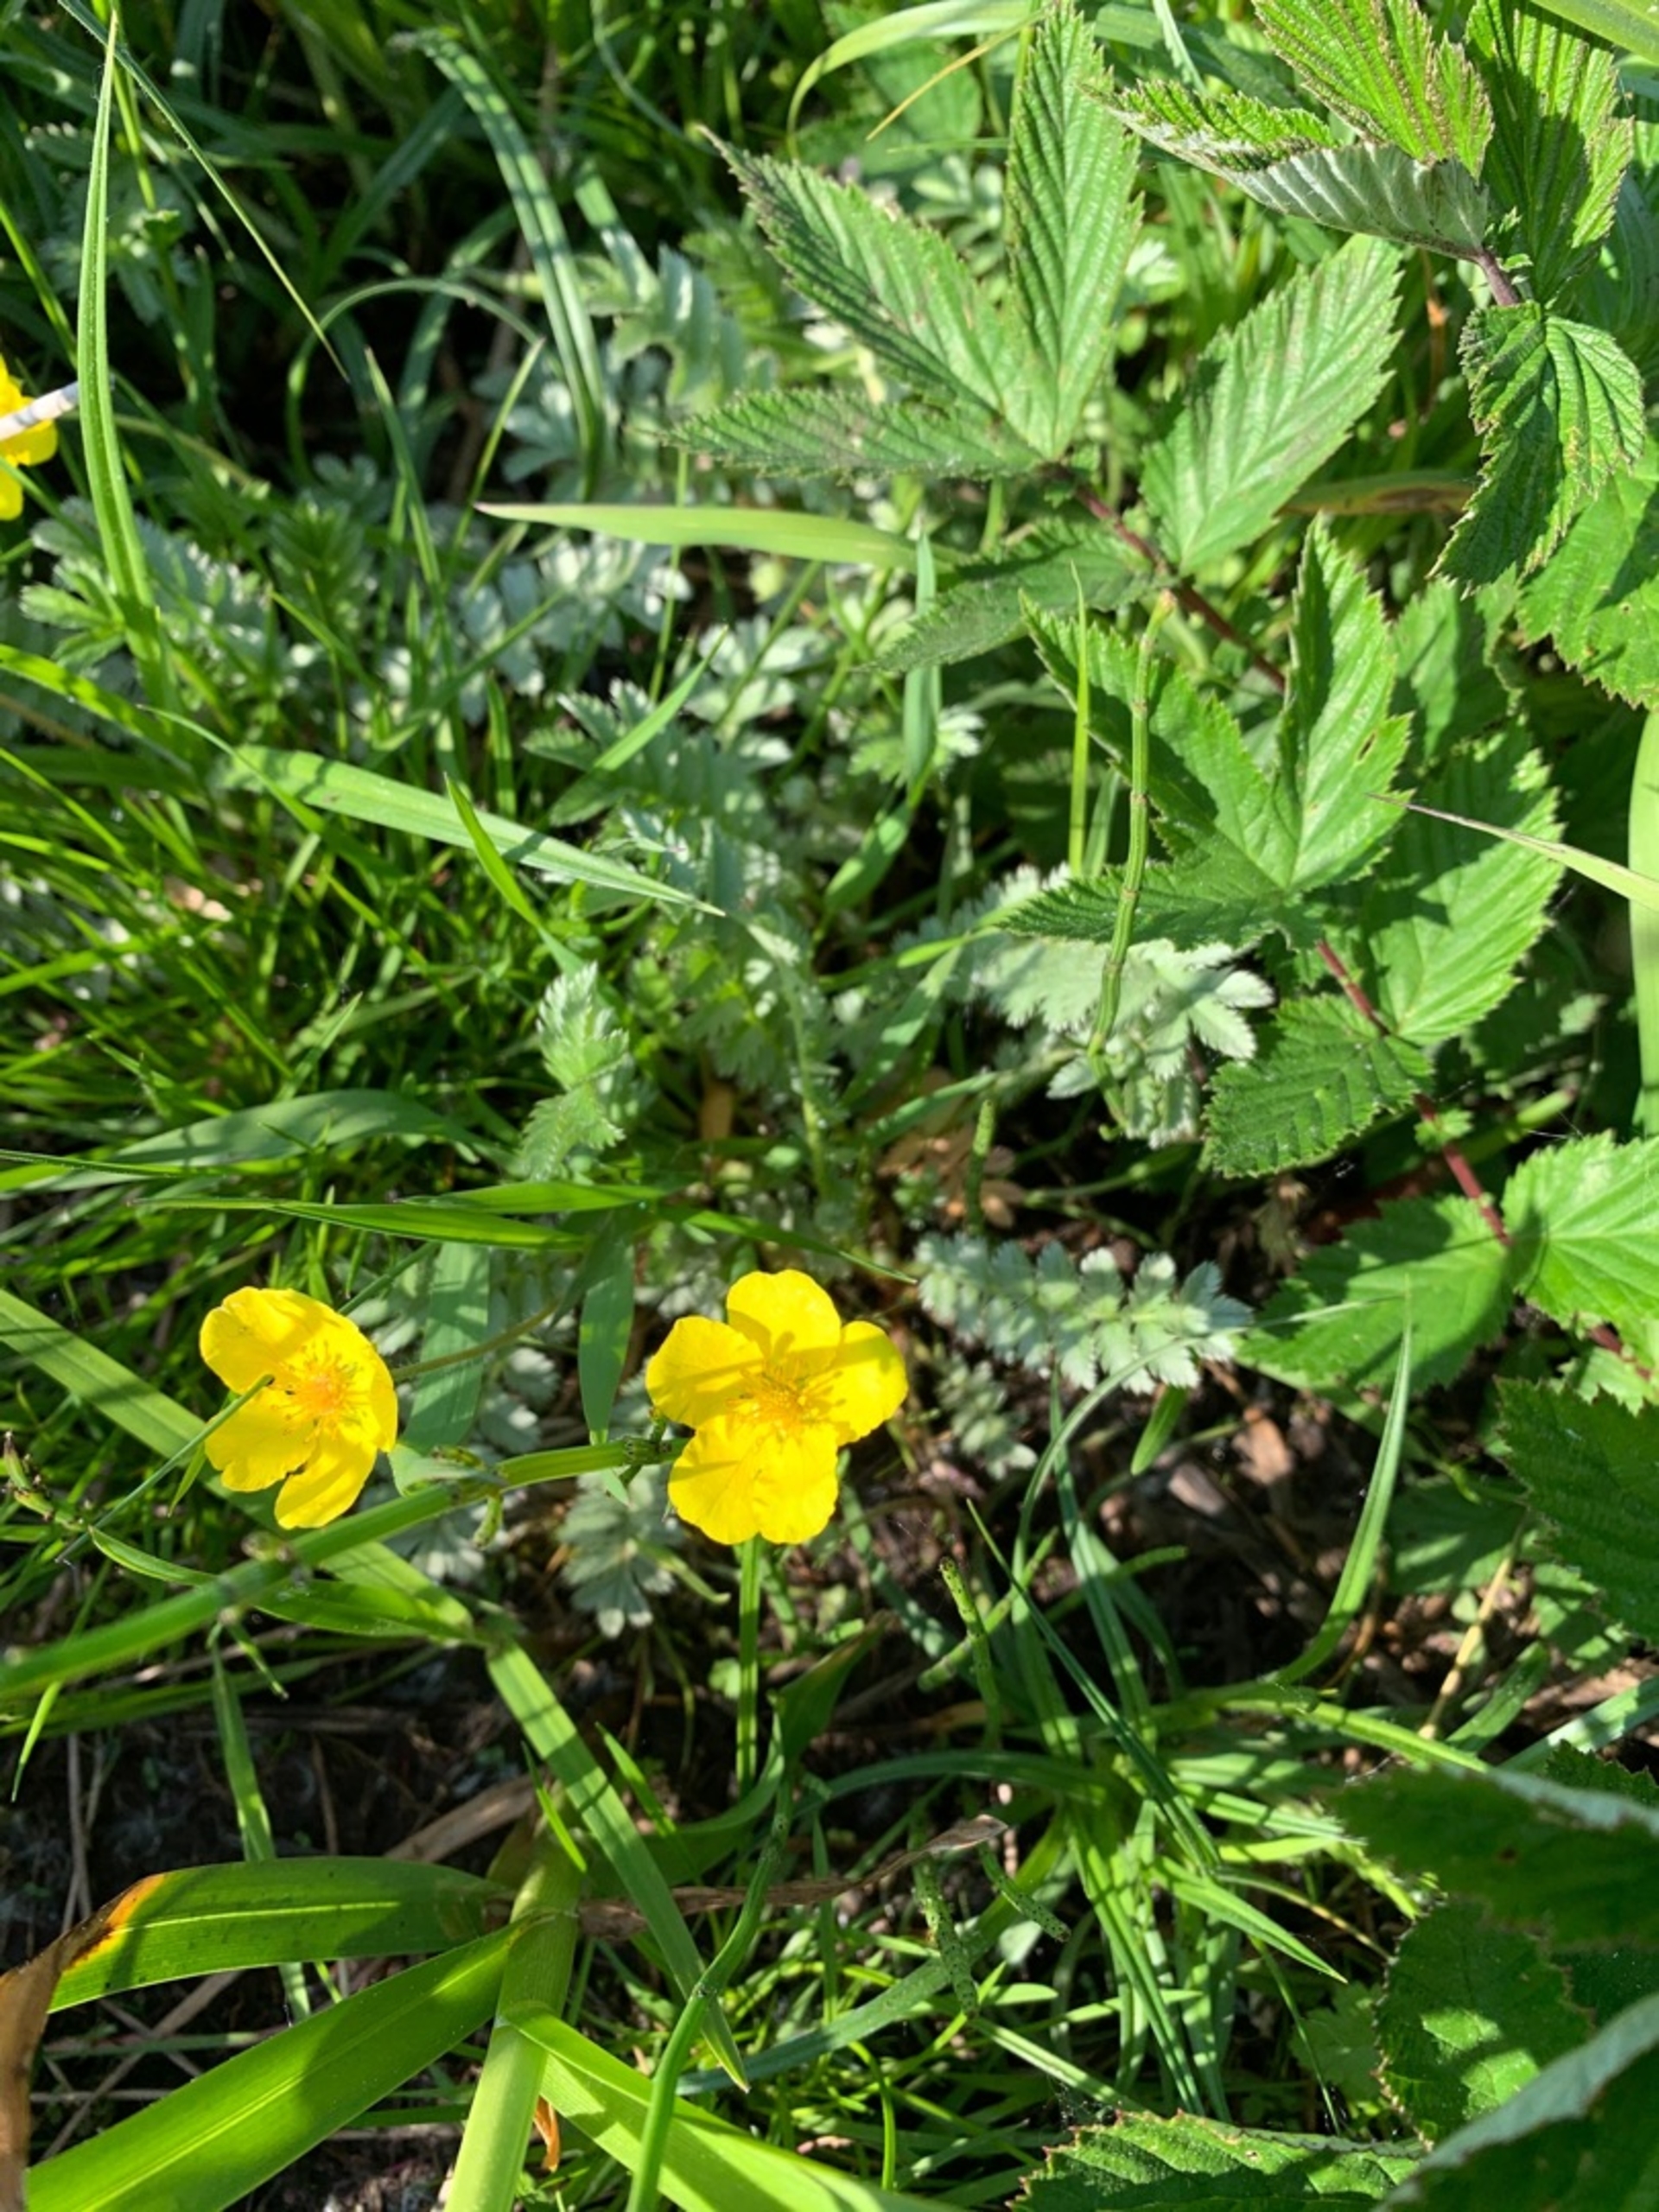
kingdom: Plantae
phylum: Tracheophyta
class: Magnoliopsida
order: Rosales
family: Rosaceae
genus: Argentina
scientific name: Argentina anserina
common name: Gåsepotentil
